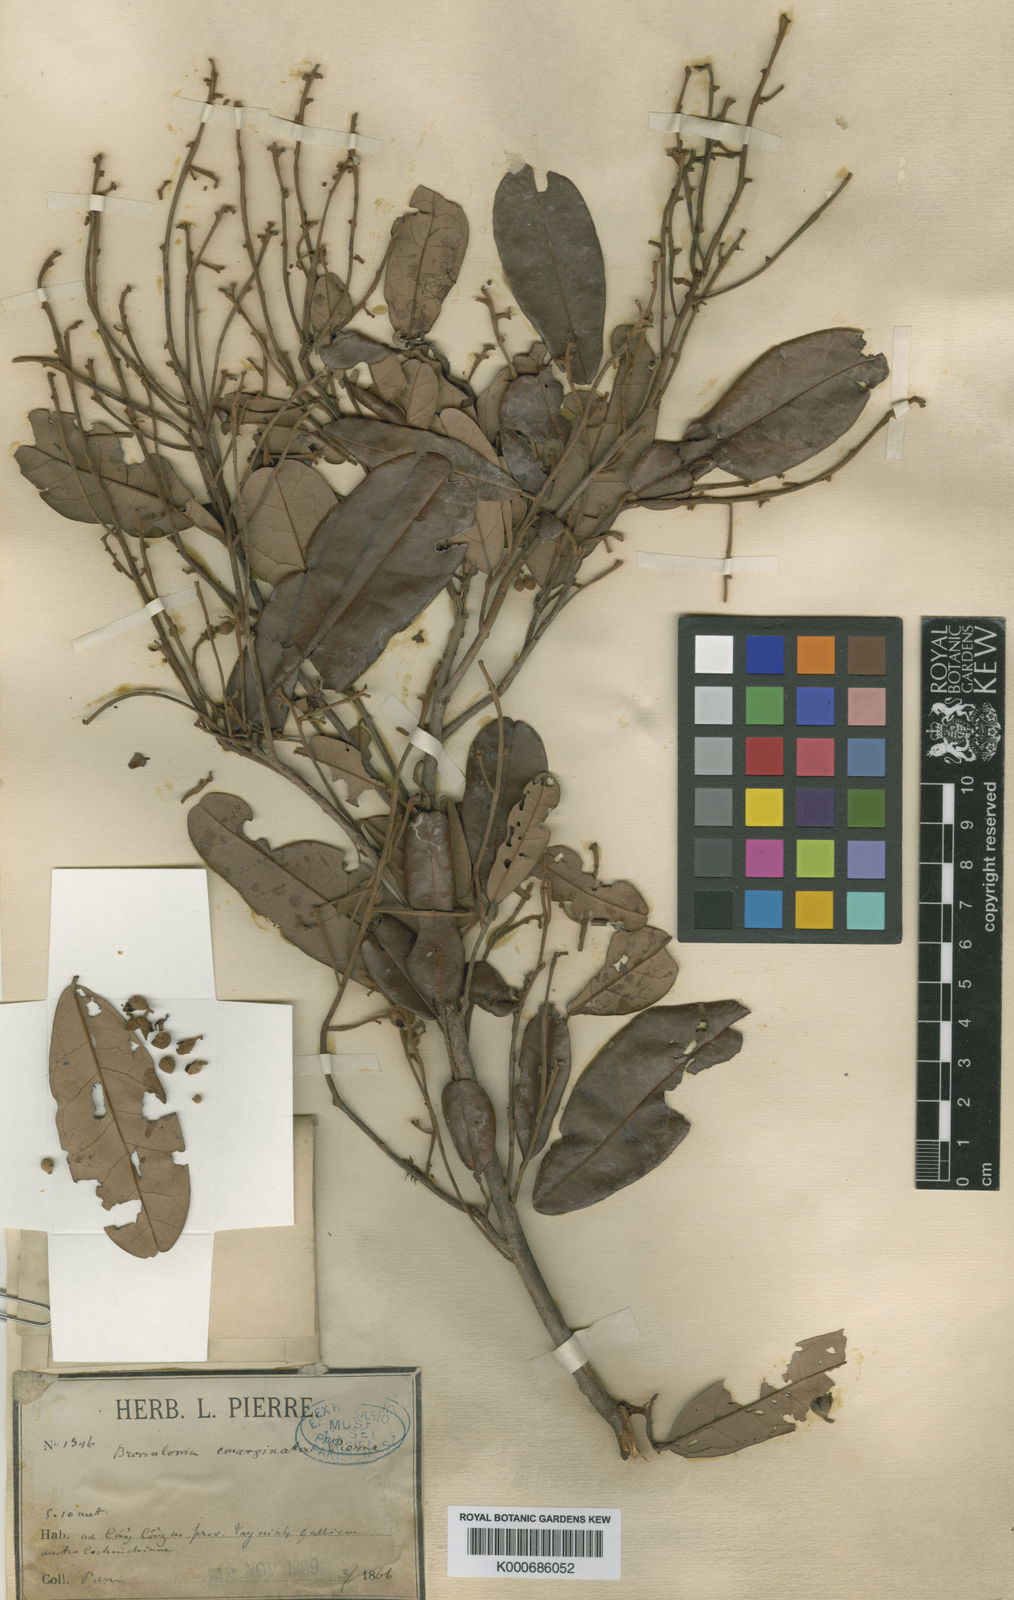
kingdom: Plantae
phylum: Tracheophyta
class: Magnoliopsida
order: Malvales
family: Malvaceae
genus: Brownlowia
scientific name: Brownlowia emarginata
